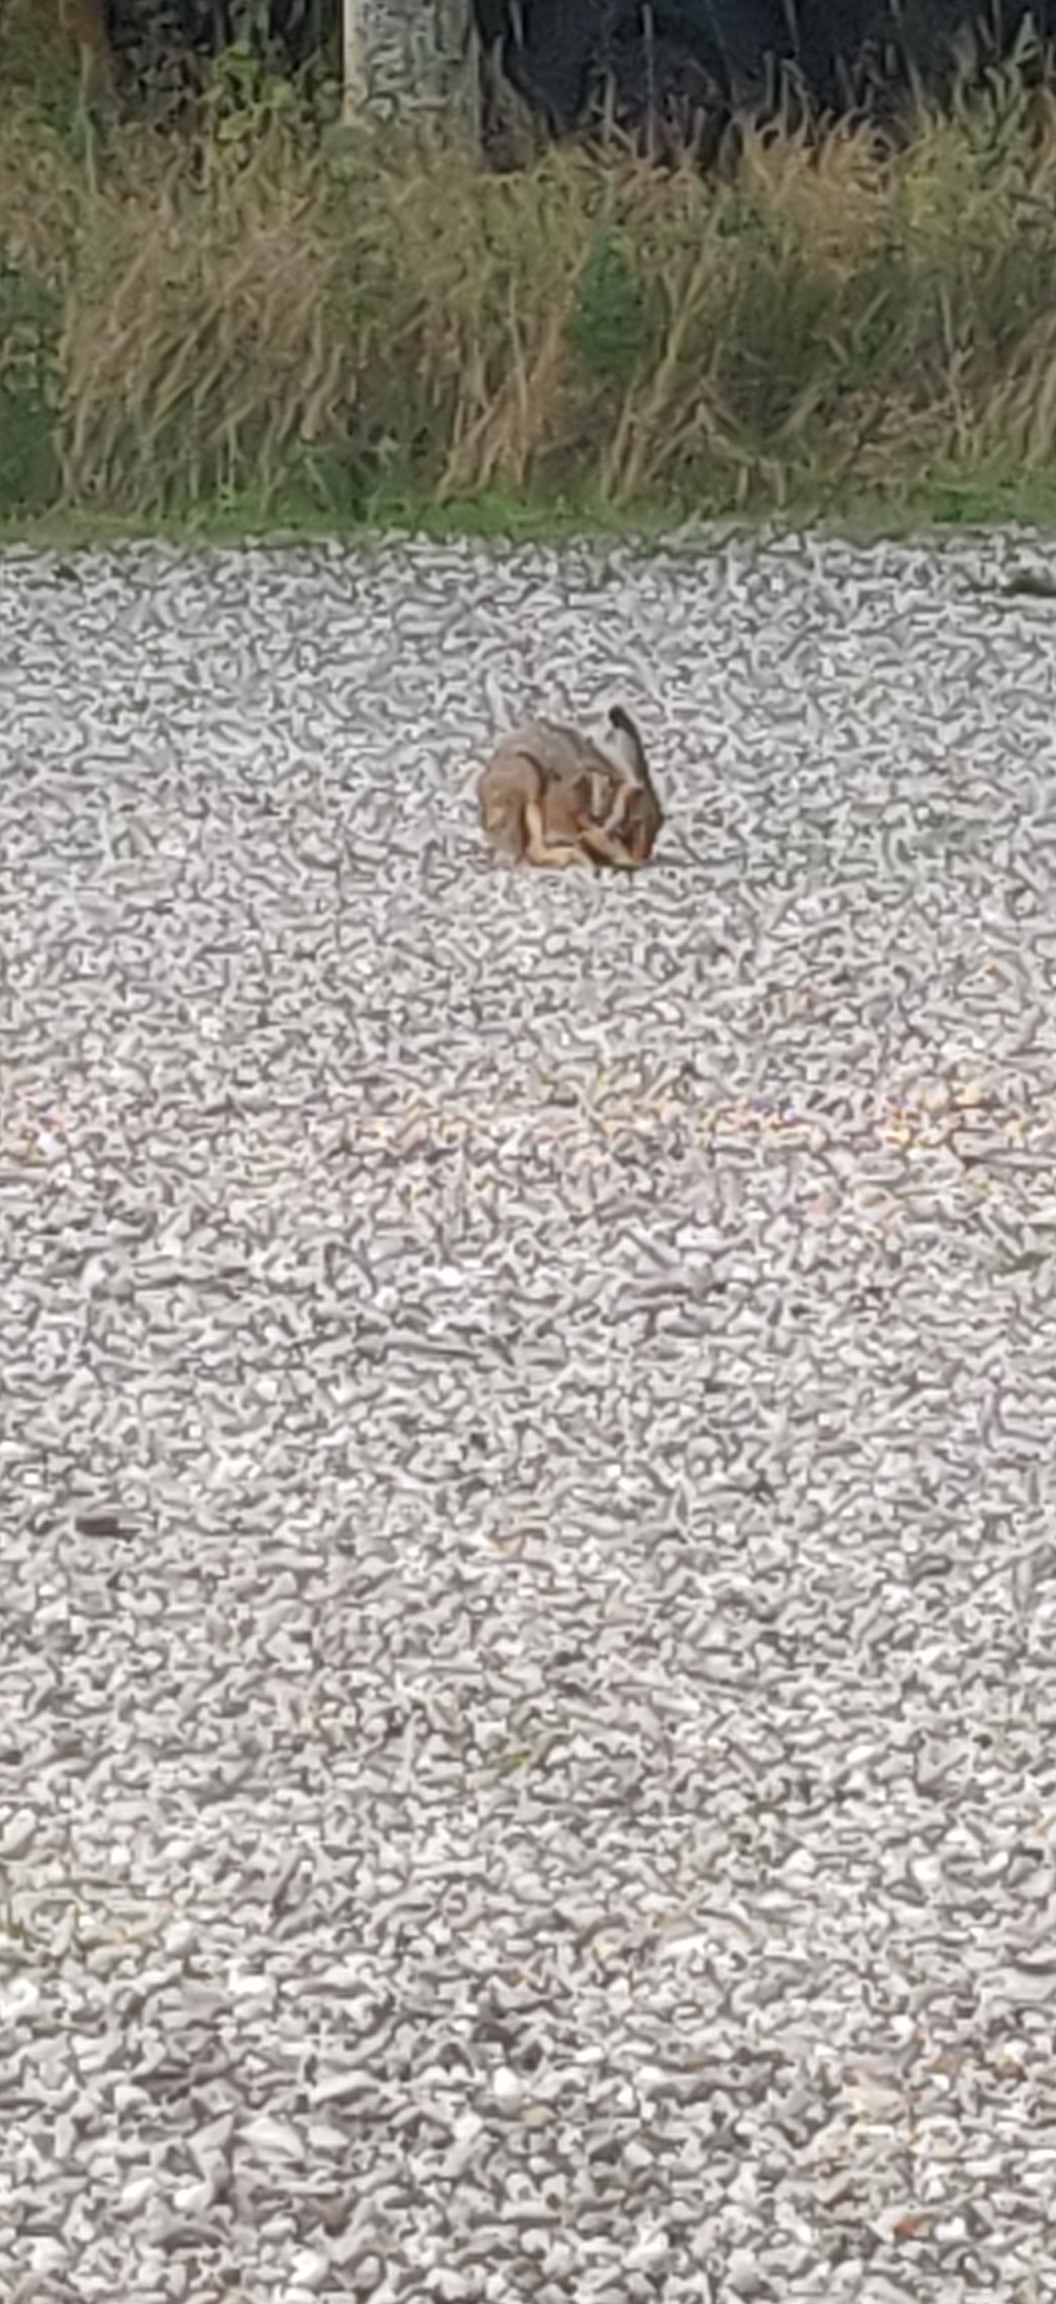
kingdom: Animalia
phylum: Chordata
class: Mammalia
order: Lagomorpha
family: Leporidae
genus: Lepus
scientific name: Lepus europaeus
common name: Hare
